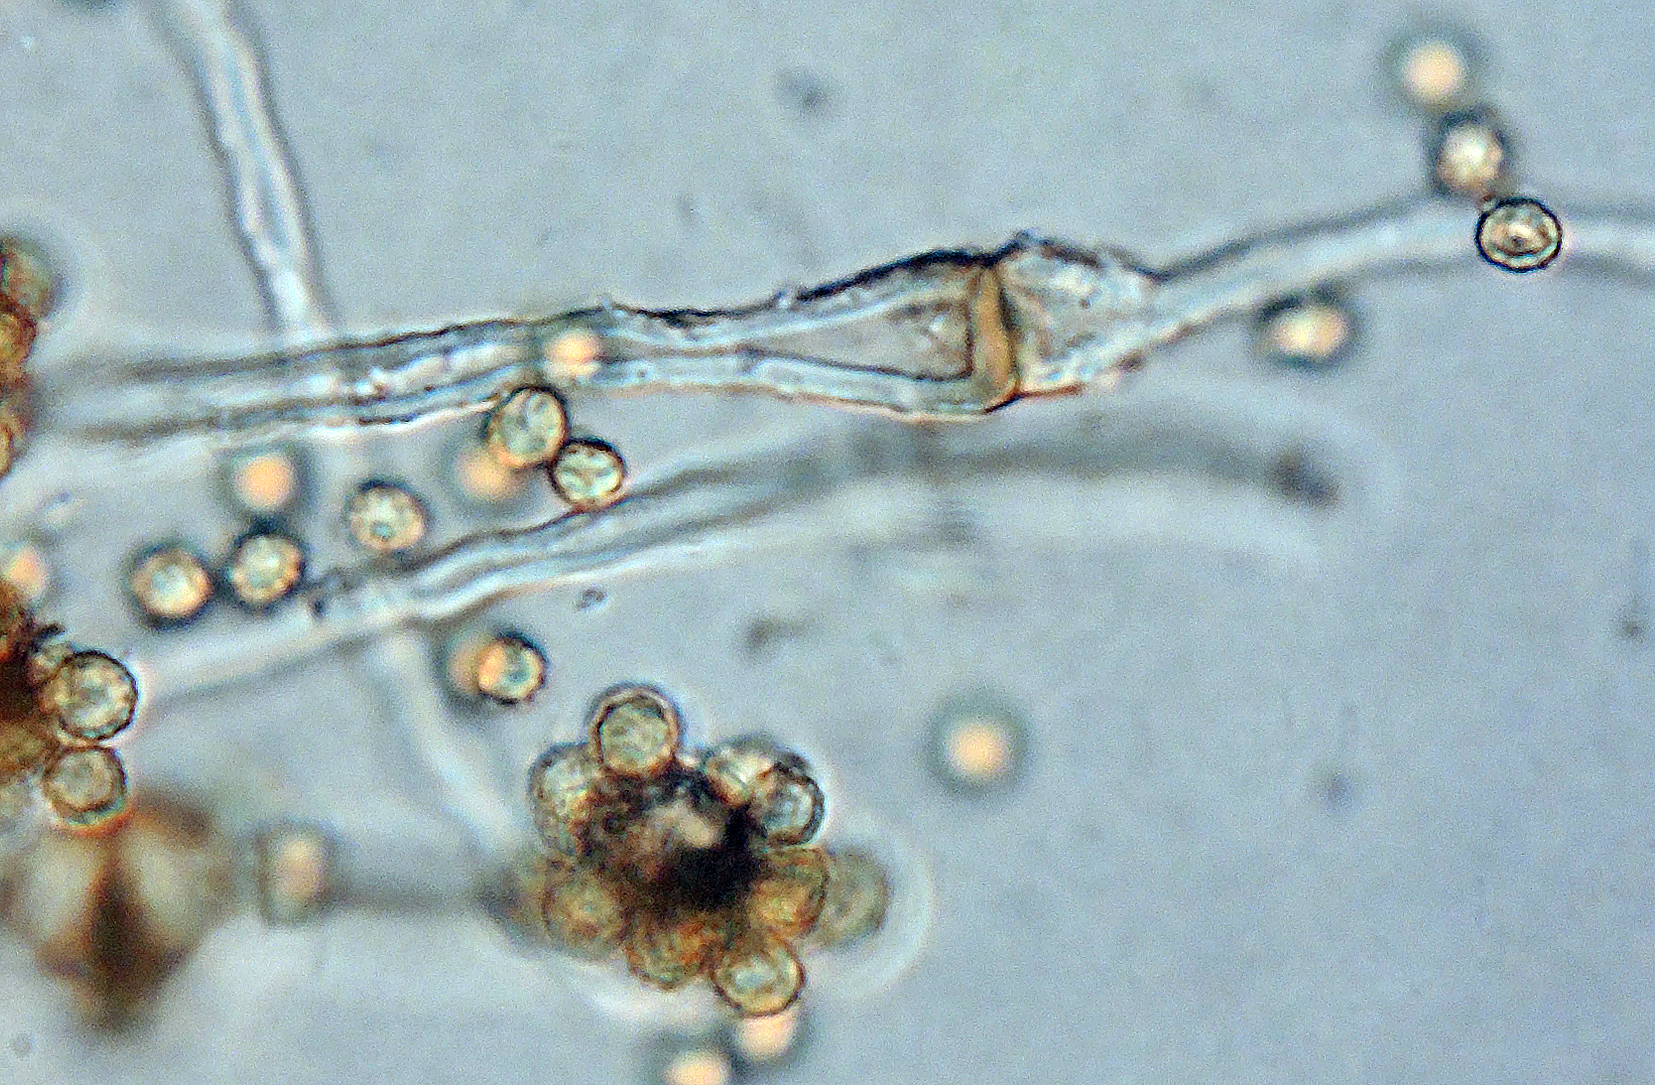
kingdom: Fungi
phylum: Basidiomycota
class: Agaricomycetes
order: Agaricales
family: Agaricaceae
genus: Tulostoma
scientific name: Tulostoma brumale
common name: vinter-stilkbovist
